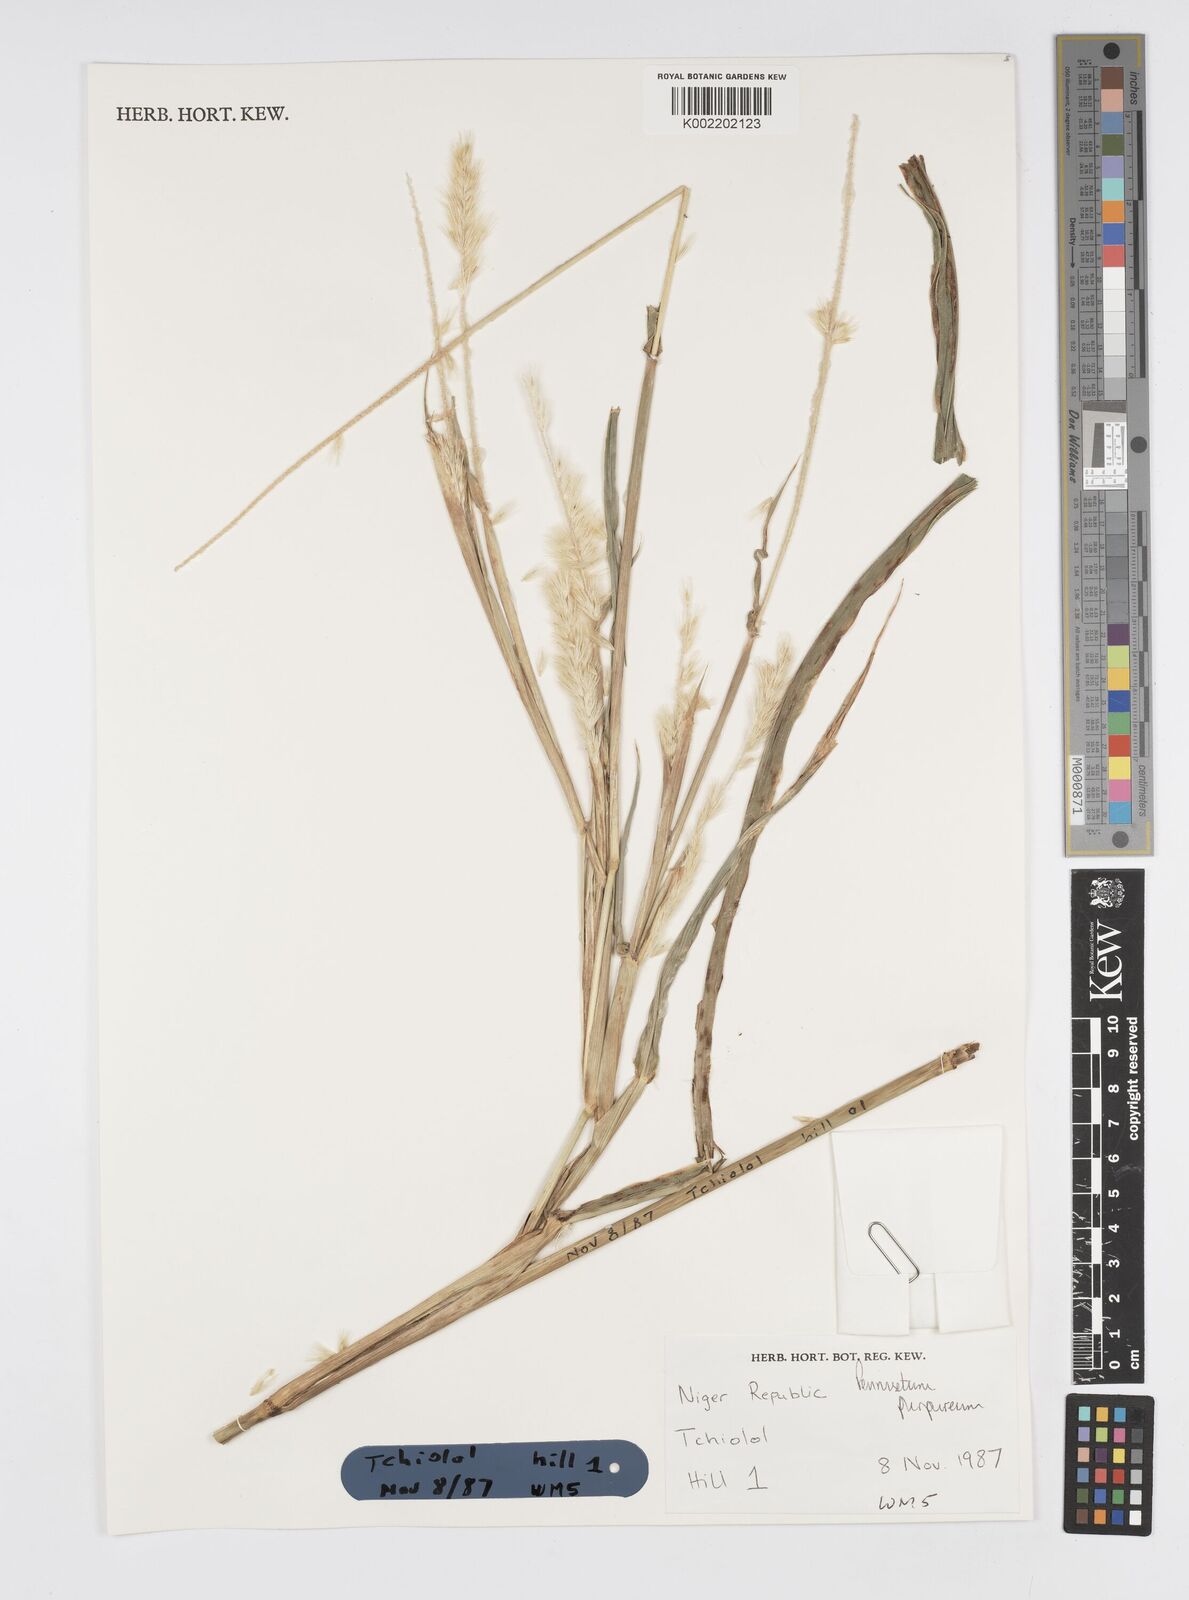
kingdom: Plantae
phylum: Tracheophyta
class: Liliopsida
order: Poales
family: Poaceae
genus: Cenchrus
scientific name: Cenchrus purpureus
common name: Elephant grass
